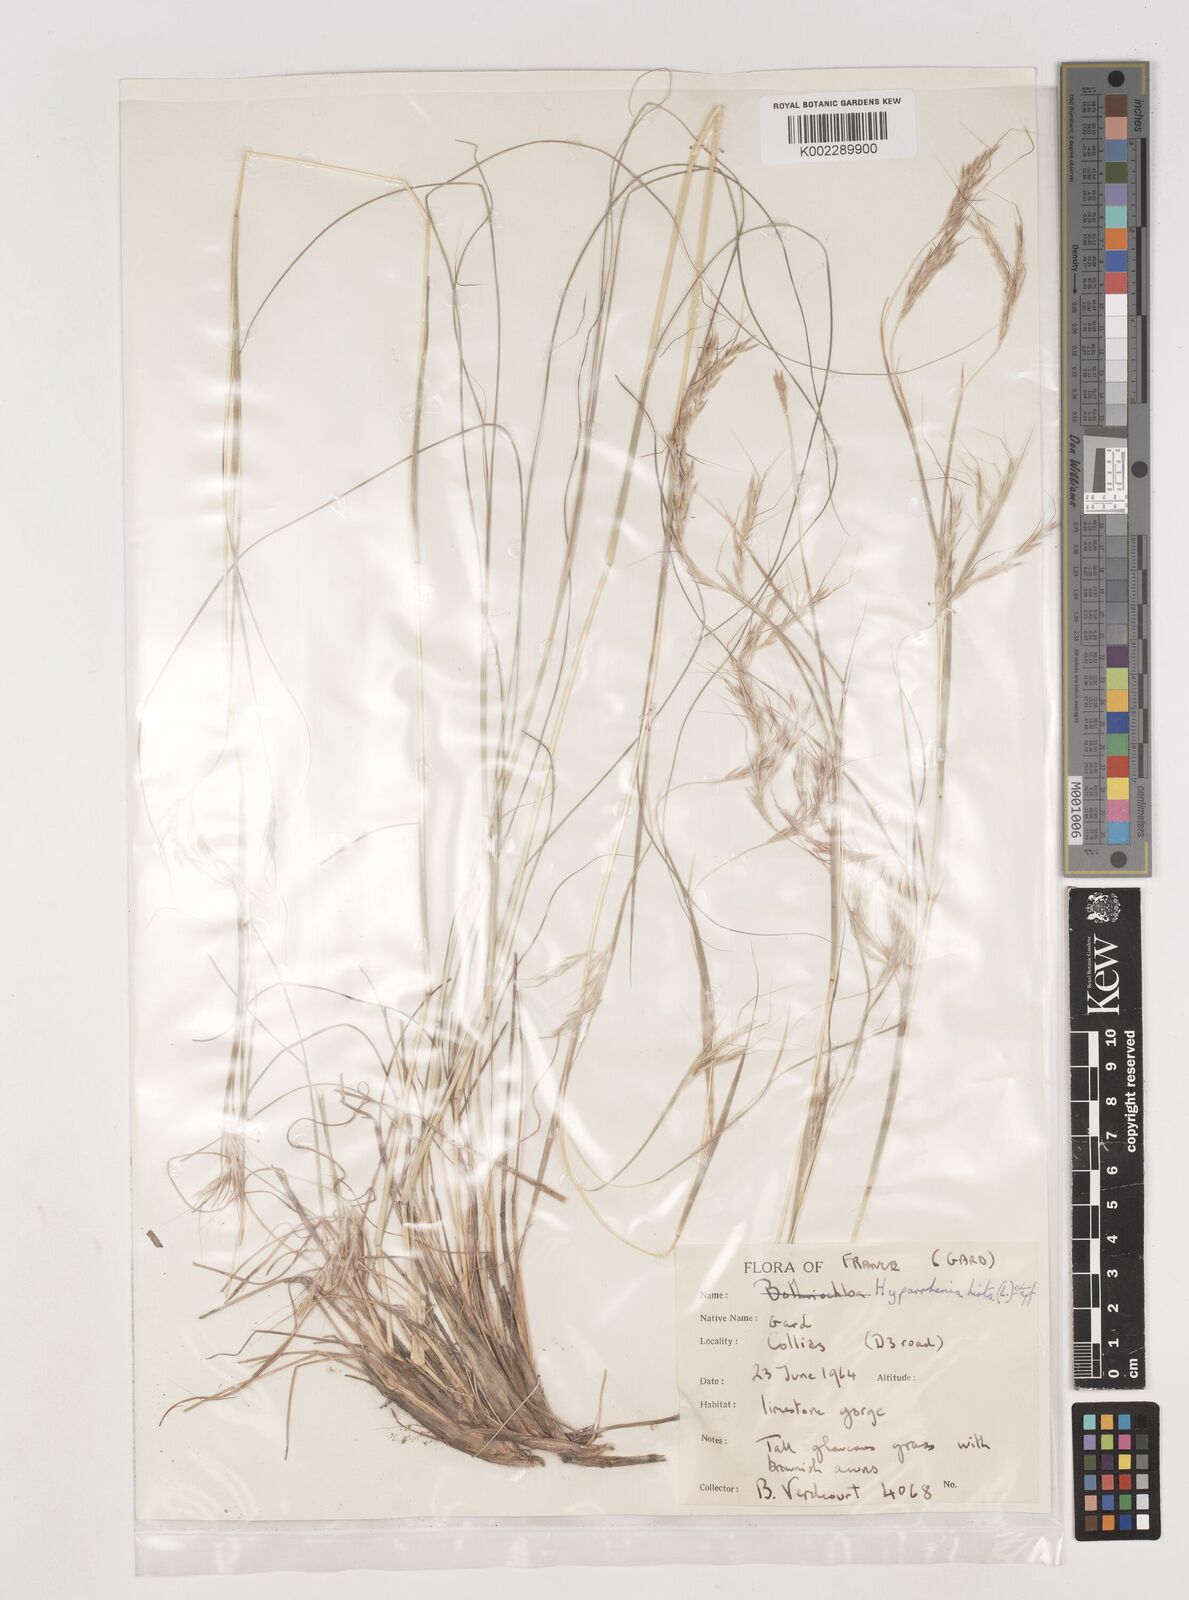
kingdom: Plantae
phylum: Tracheophyta
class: Liliopsida
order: Poales
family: Poaceae
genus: Hyparrhenia
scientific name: Hyparrhenia hirta
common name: Thatching grass
